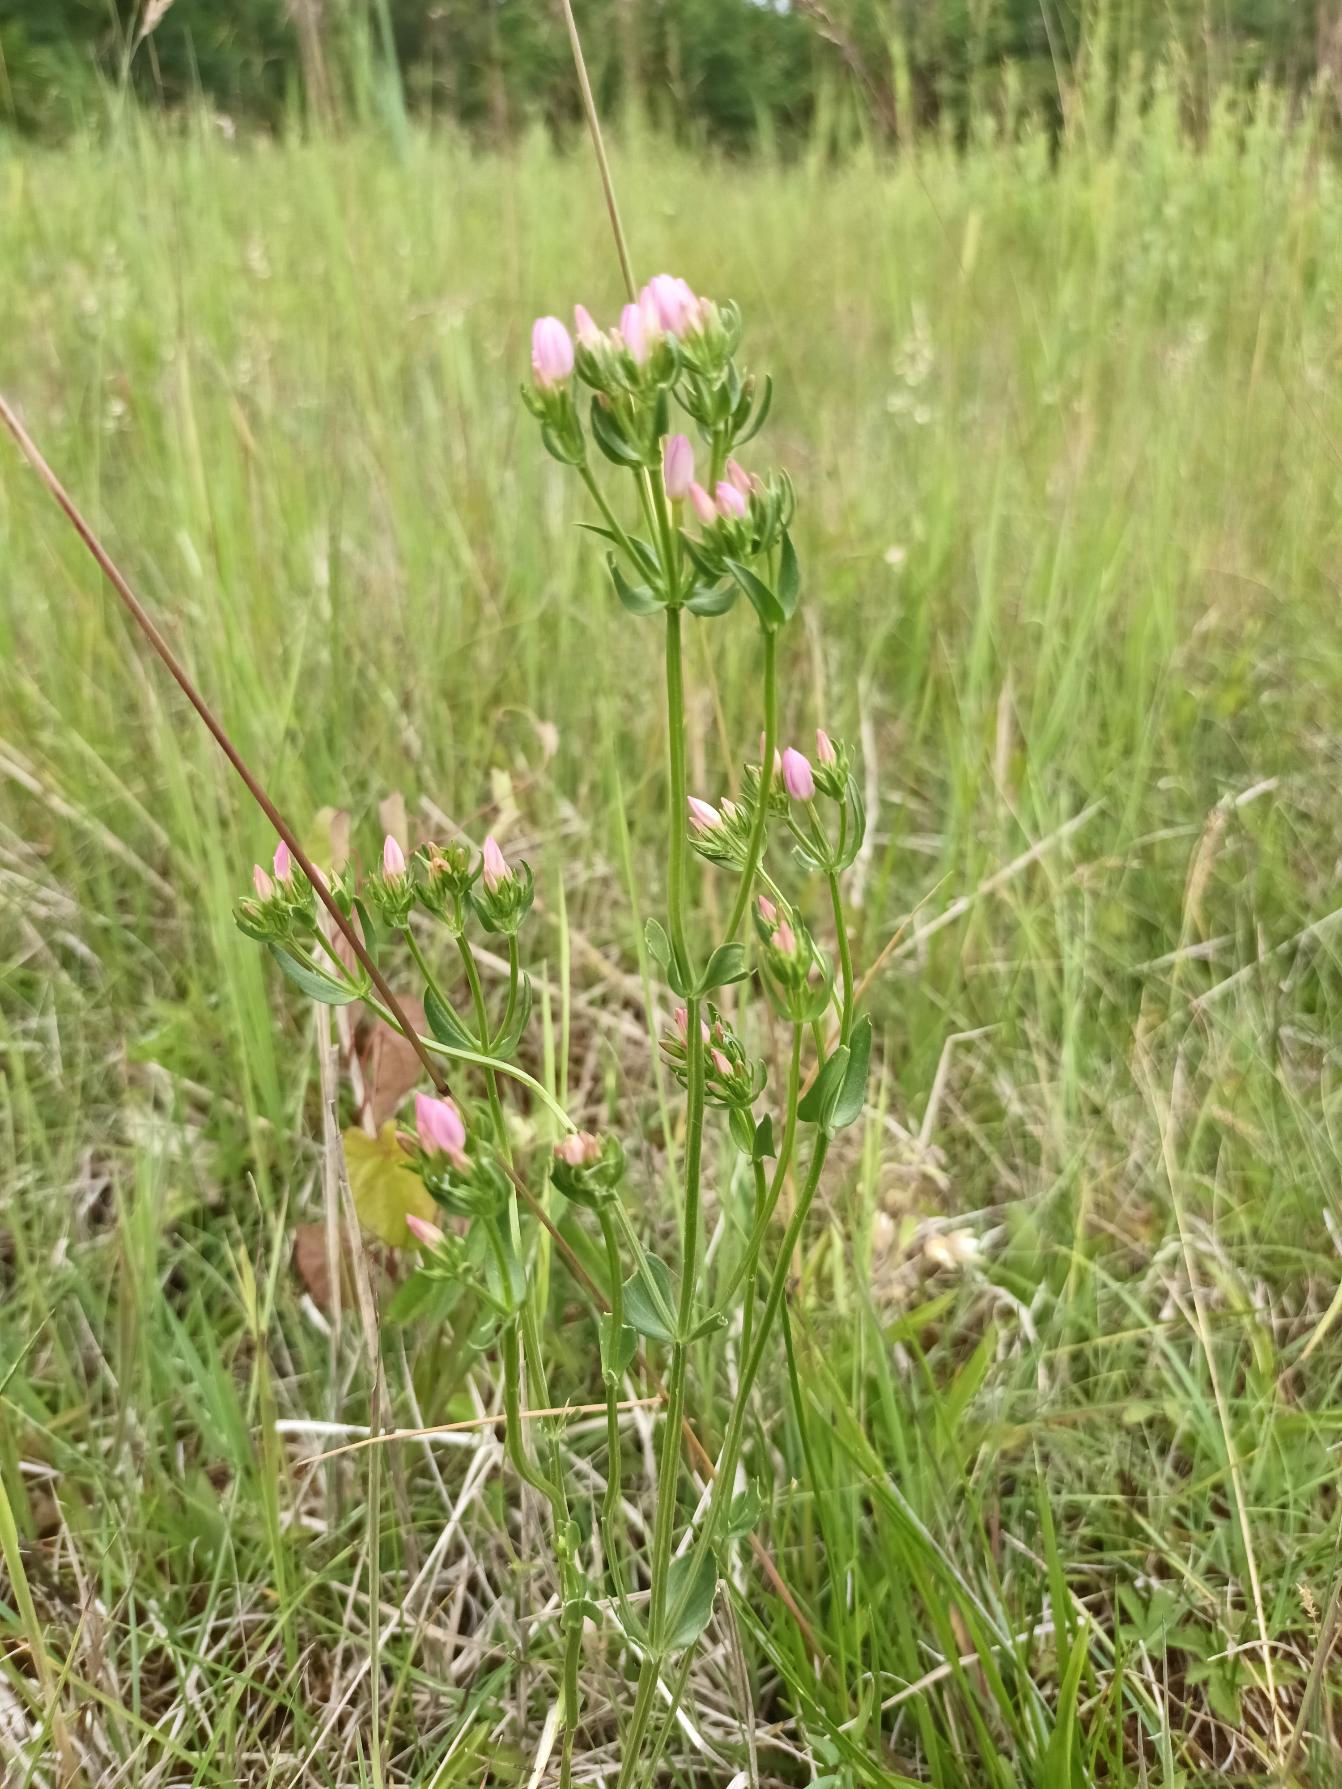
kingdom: Plantae
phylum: Tracheophyta
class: Magnoliopsida
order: Gentianales
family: Gentianaceae
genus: Centaurium
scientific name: Centaurium erythraea
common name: Mark-tusindgylden
